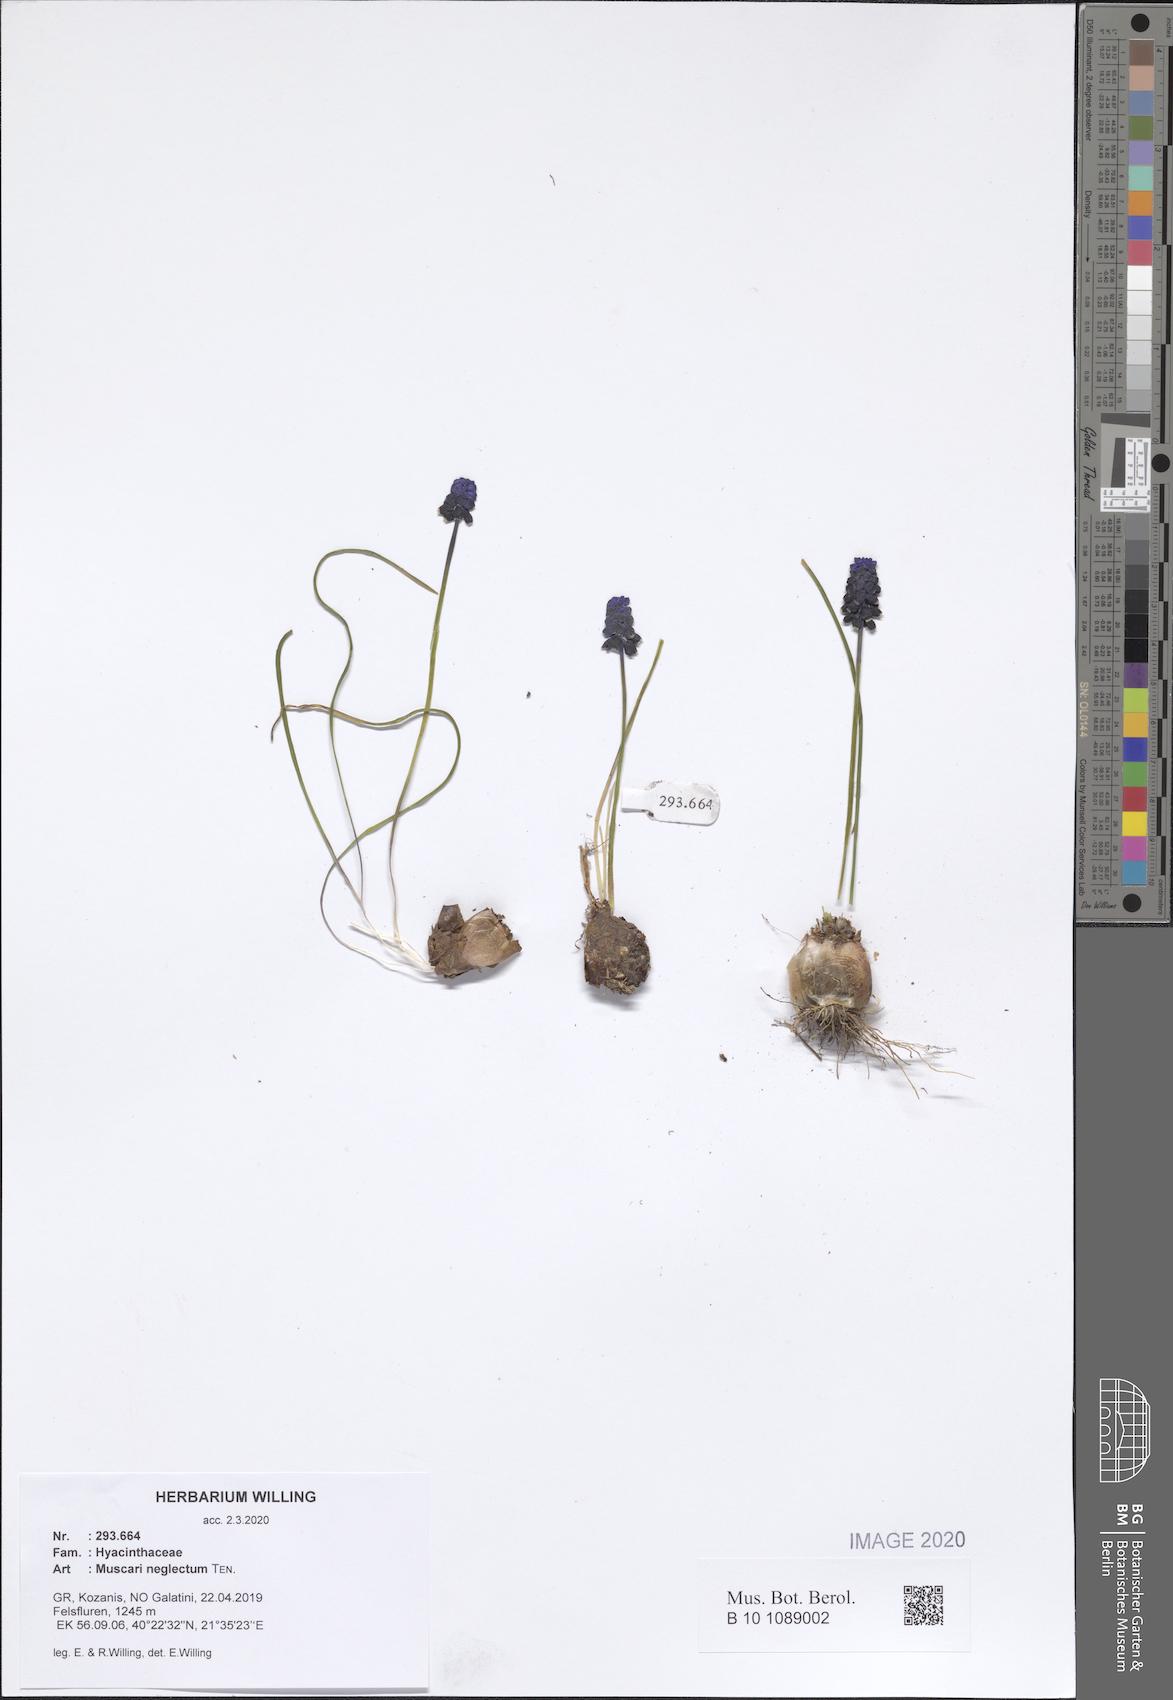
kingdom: Plantae
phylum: Tracheophyta
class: Liliopsida
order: Asparagales
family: Asparagaceae
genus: Muscari
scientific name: Muscari neglectum
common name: Grape-hyacinth
